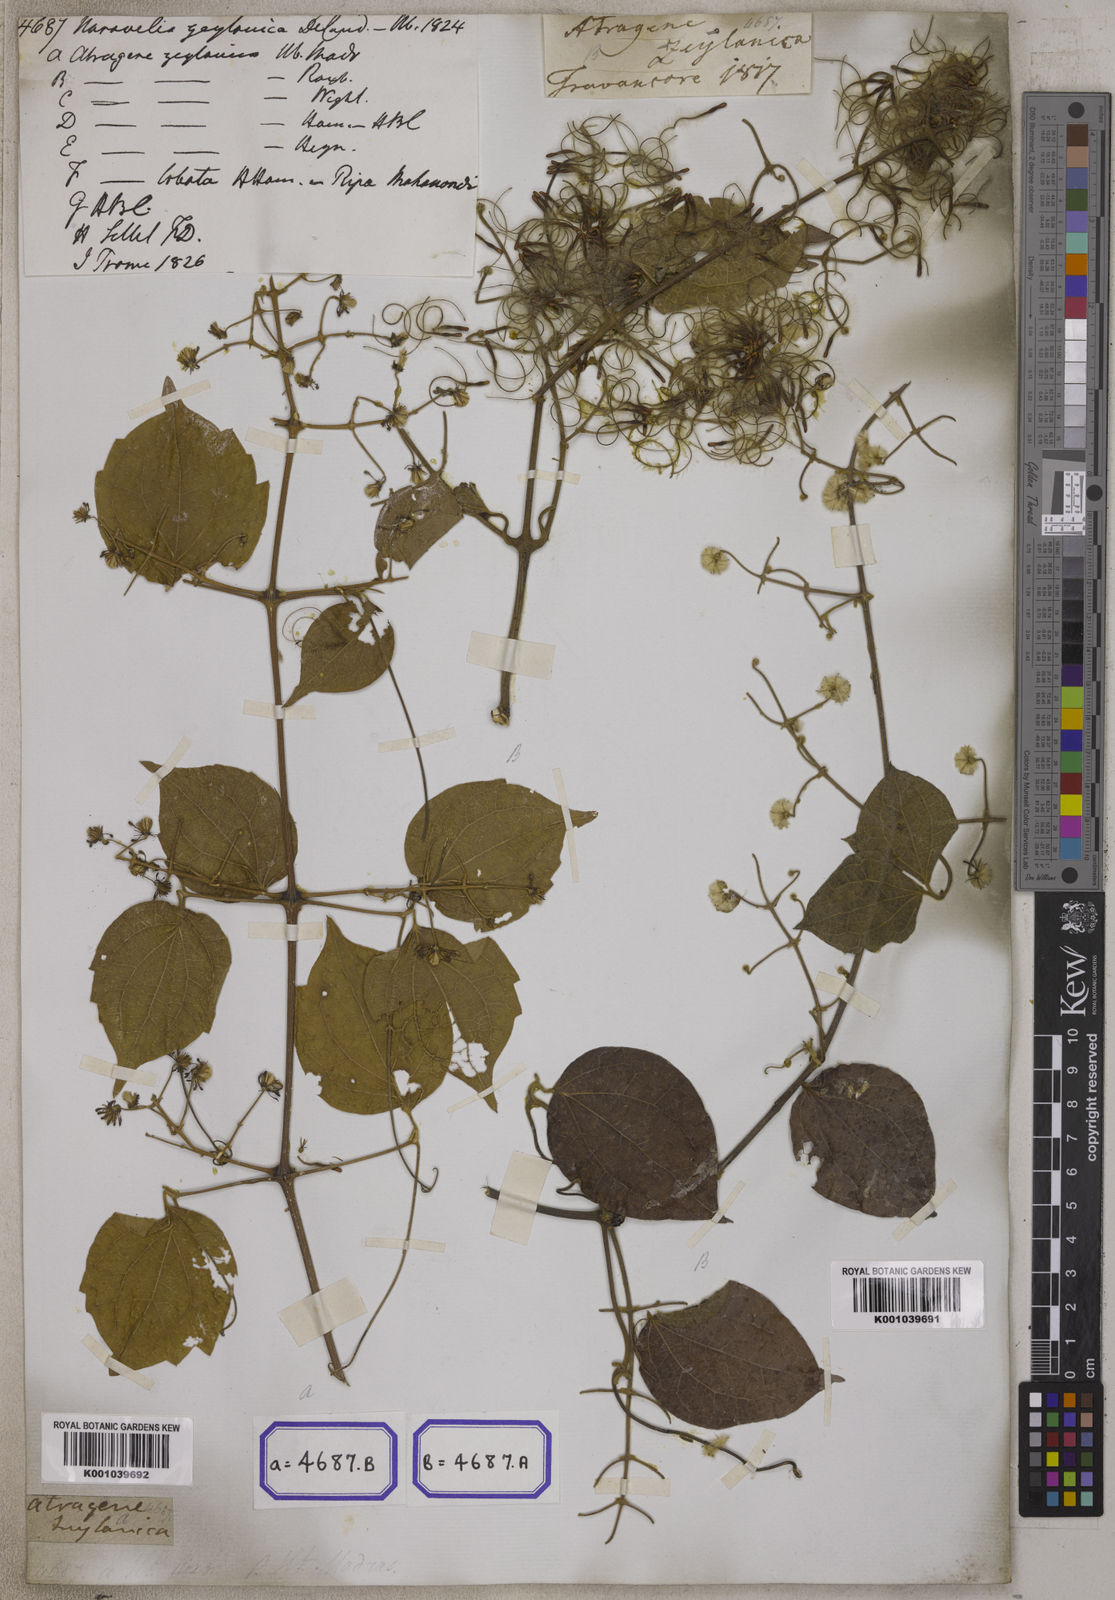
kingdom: Plantae
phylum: Tracheophyta
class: Magnoliopsida
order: Ranunculales
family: Ranunculaceae
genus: Clematis
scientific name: Clematis zeylanica
